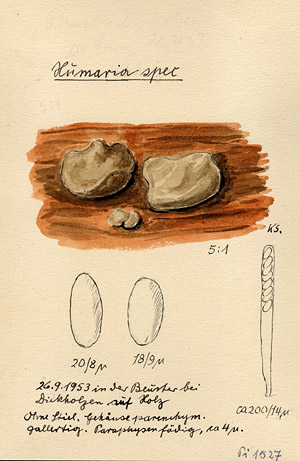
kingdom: Fungi
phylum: Ascomycota
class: Pezizomycetes
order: Pezizales
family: Pyronemataceae
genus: Humaria
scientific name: Humaria
